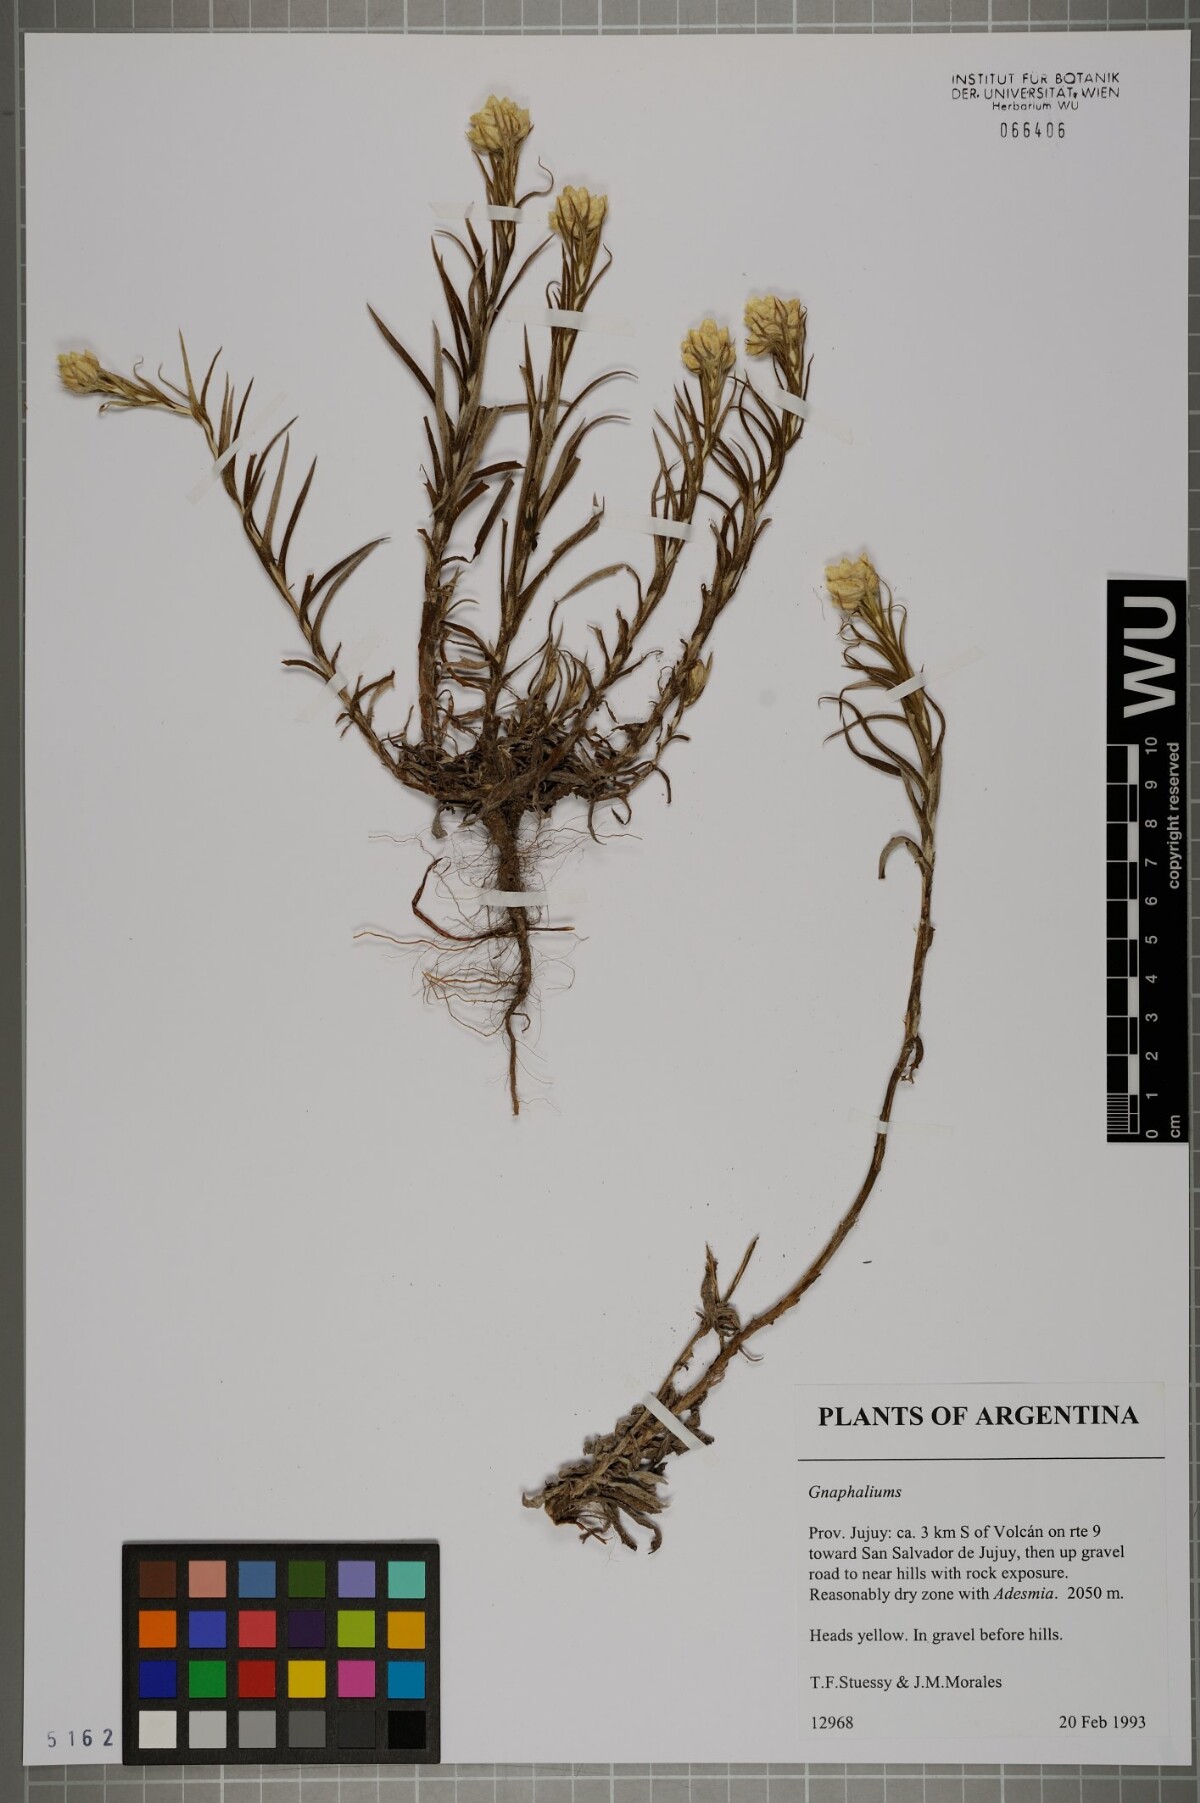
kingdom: Plantae
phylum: Tracheophyta
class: Magnoliopsida
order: Asterales
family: Asteraceae
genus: Gnaphalium
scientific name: Gnaphalium
